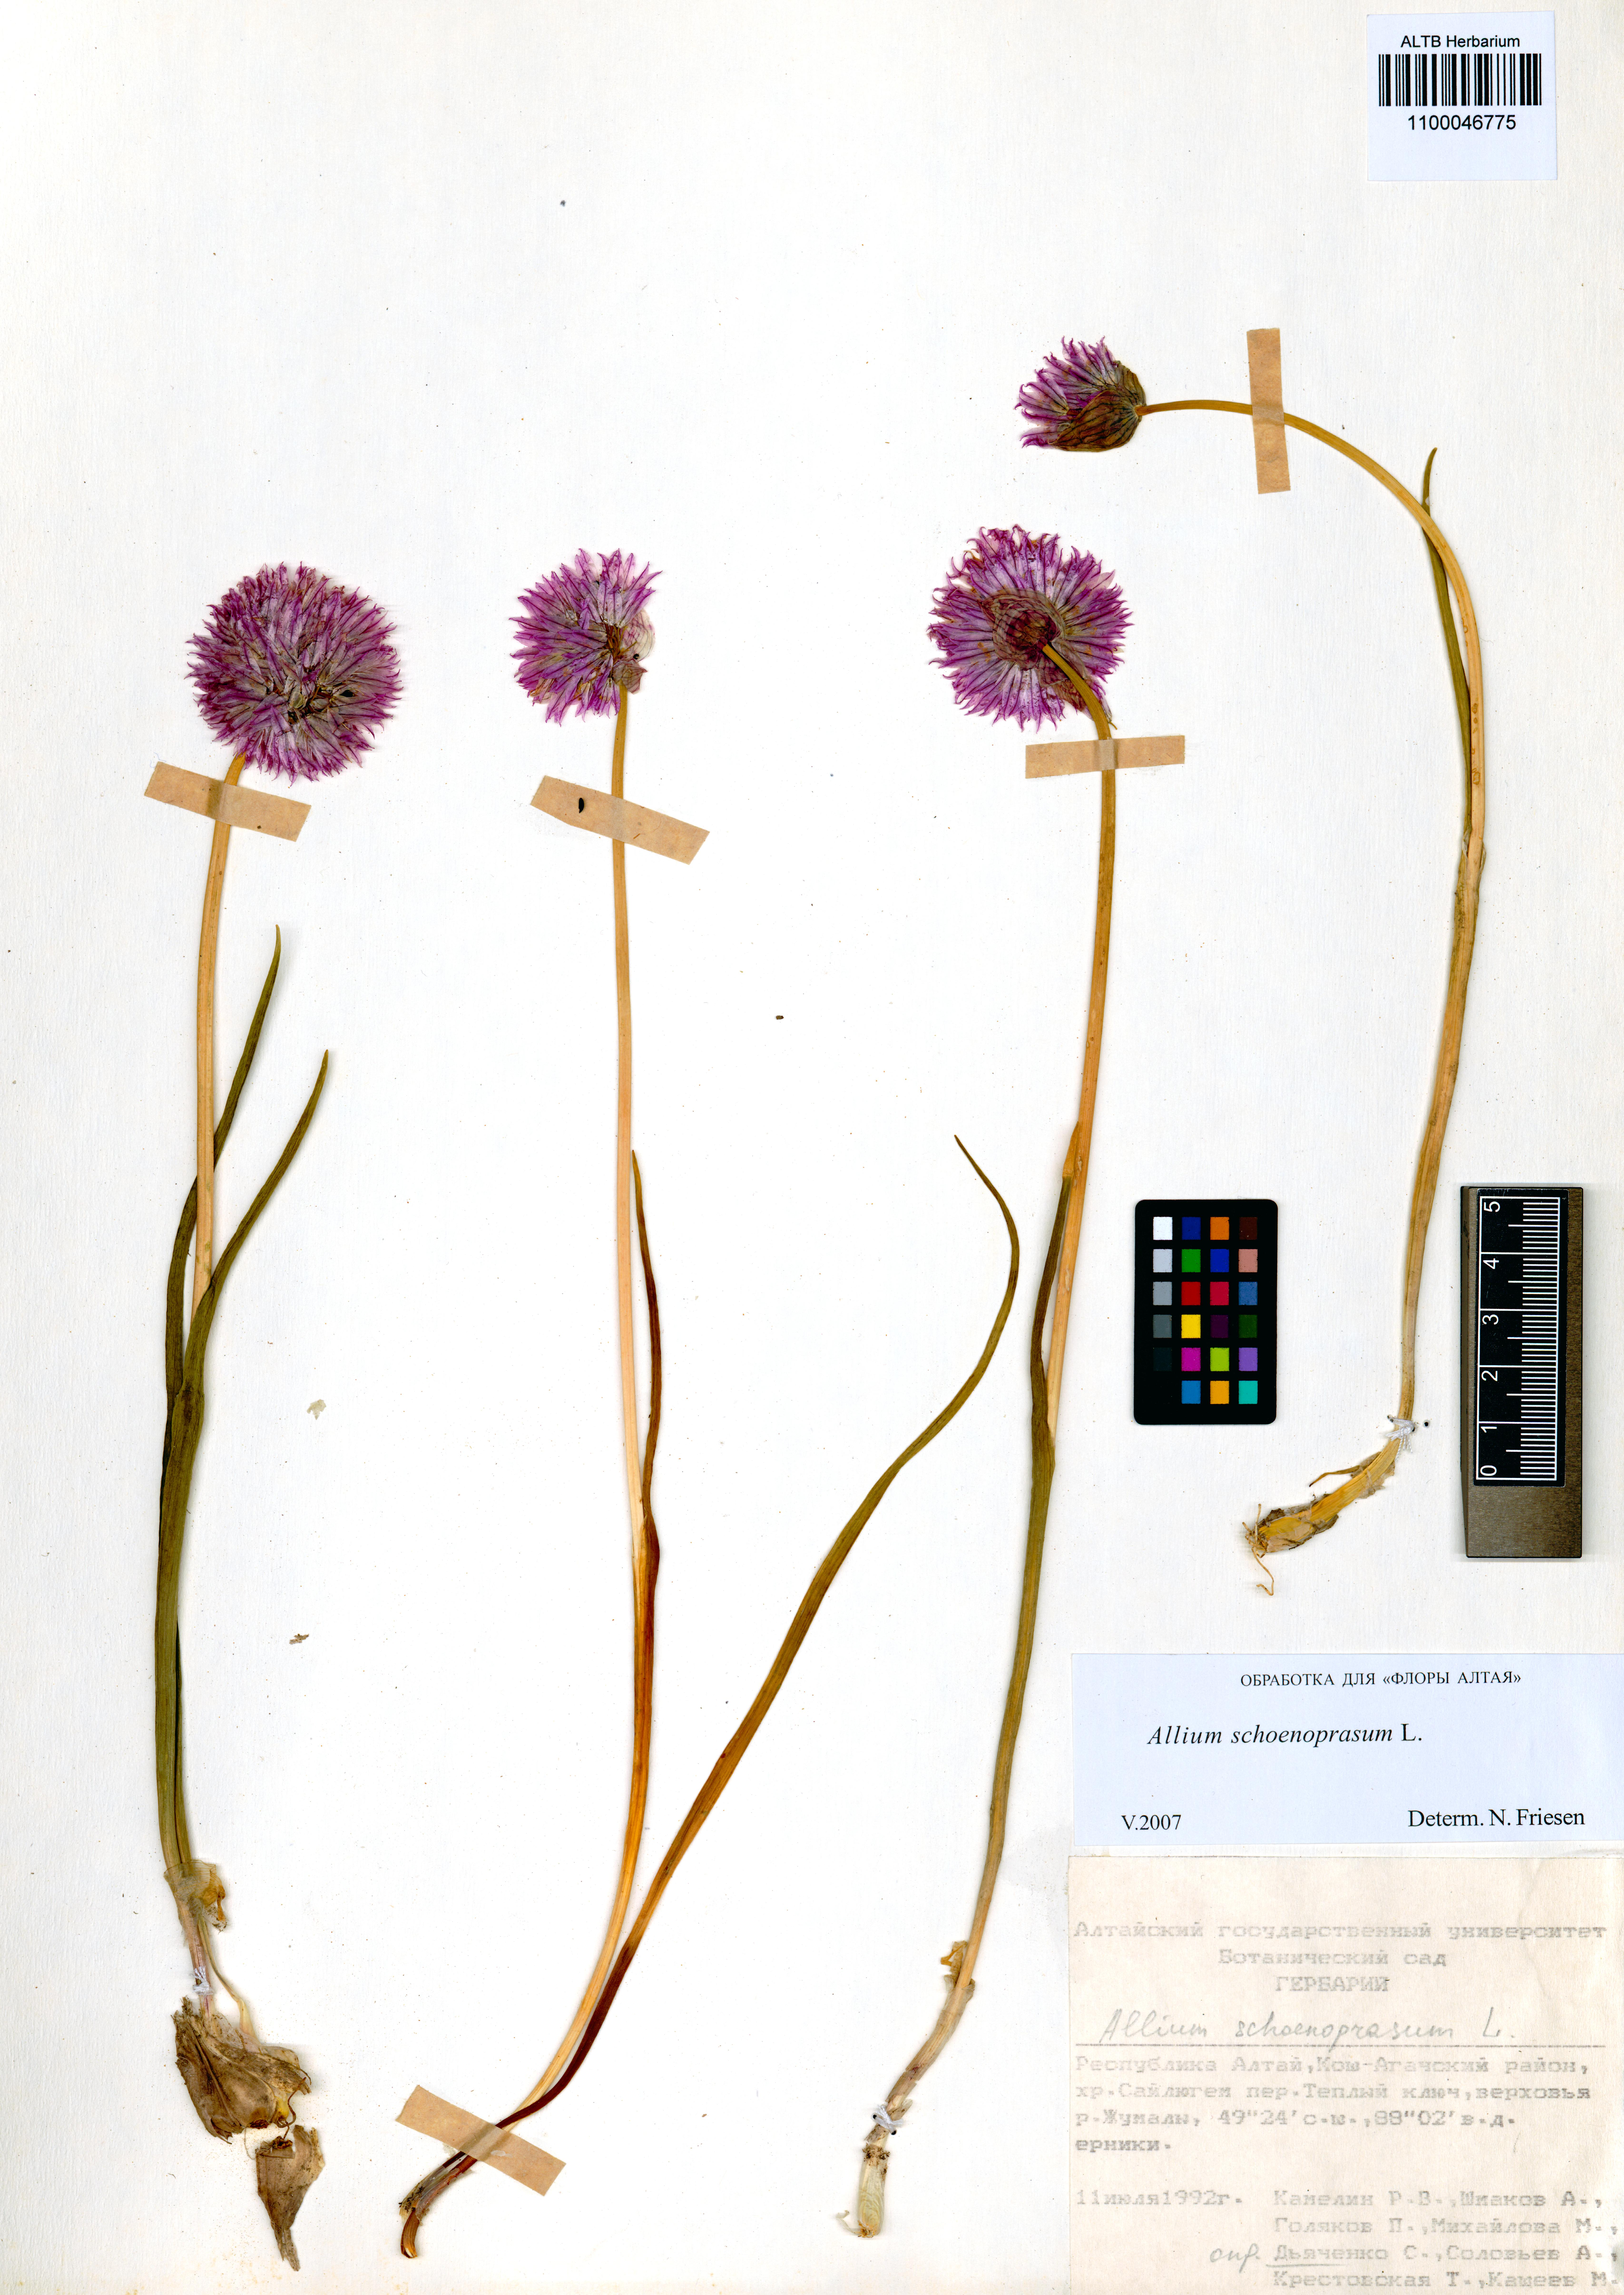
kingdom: Plantae
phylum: Tracheophyta
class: Liliopsida
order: Asparagales
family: Amaryllidaceae
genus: Allium
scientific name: Allium schoenoprasum
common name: Chives
